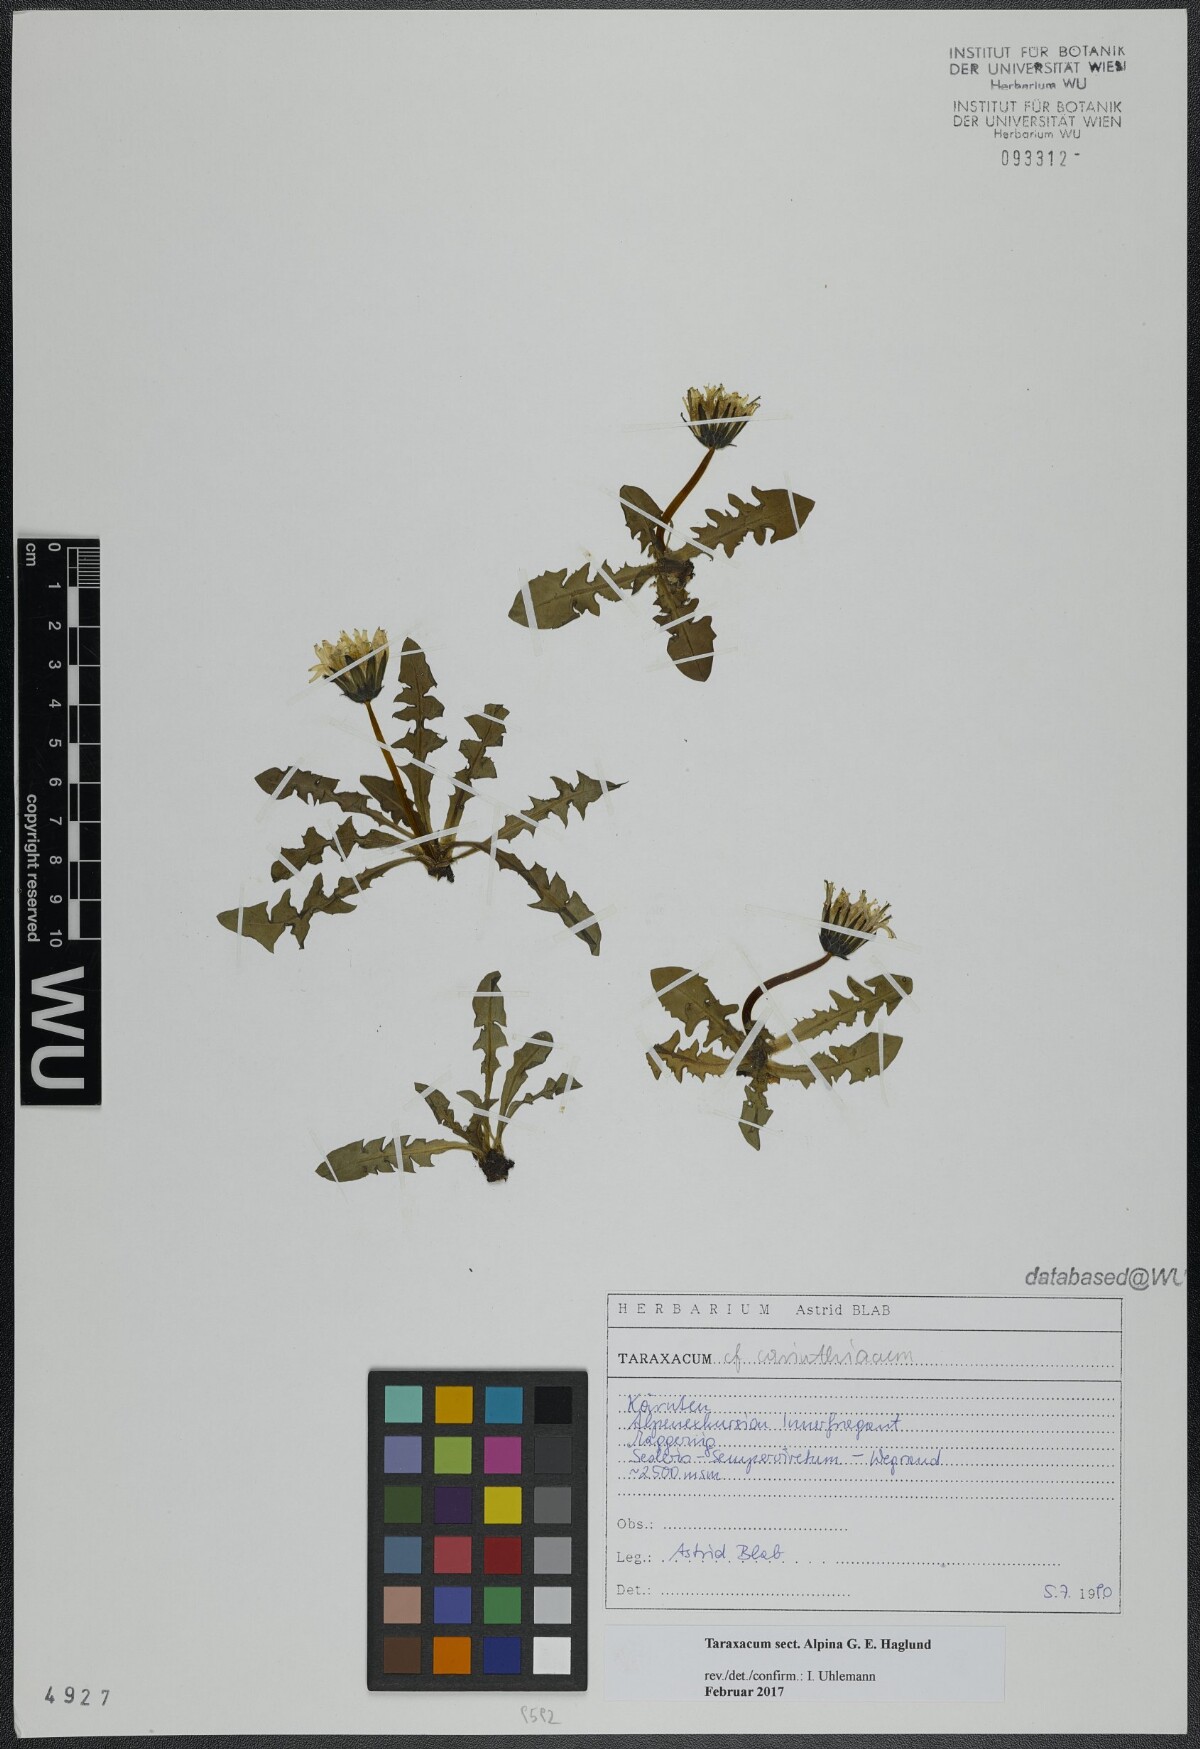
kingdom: Plantae
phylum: Tracheophyta
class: Magnoliopsida
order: Asterales
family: Asteraceae
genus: Taraxacum
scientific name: Taraxacum
